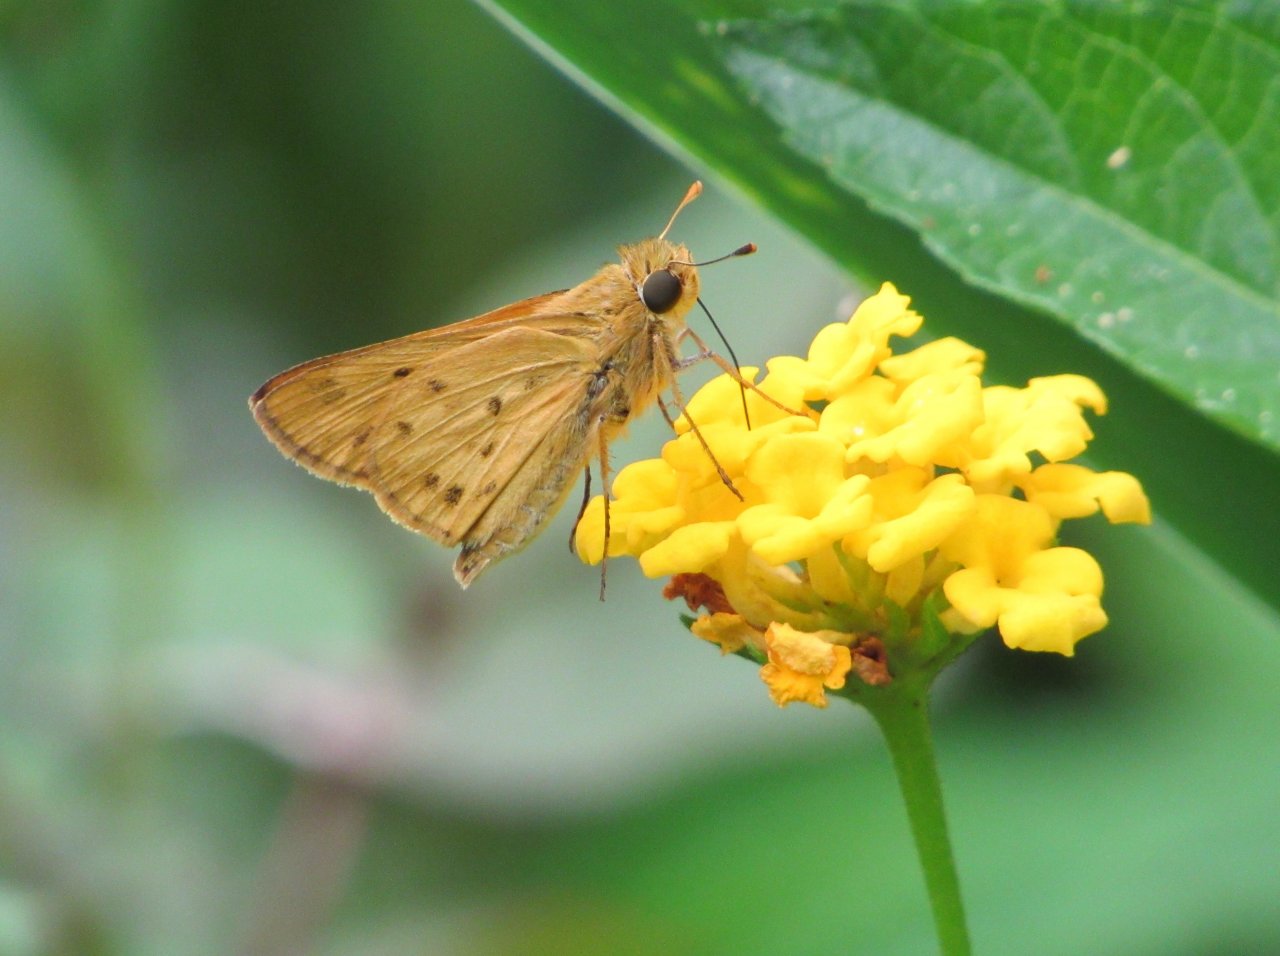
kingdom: Animalia
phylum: Arthropoda
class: Insecta
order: Lepidoptera
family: Hesperiidae
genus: Hylephila
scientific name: Hylephila phyleus
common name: Fiery Skipper
